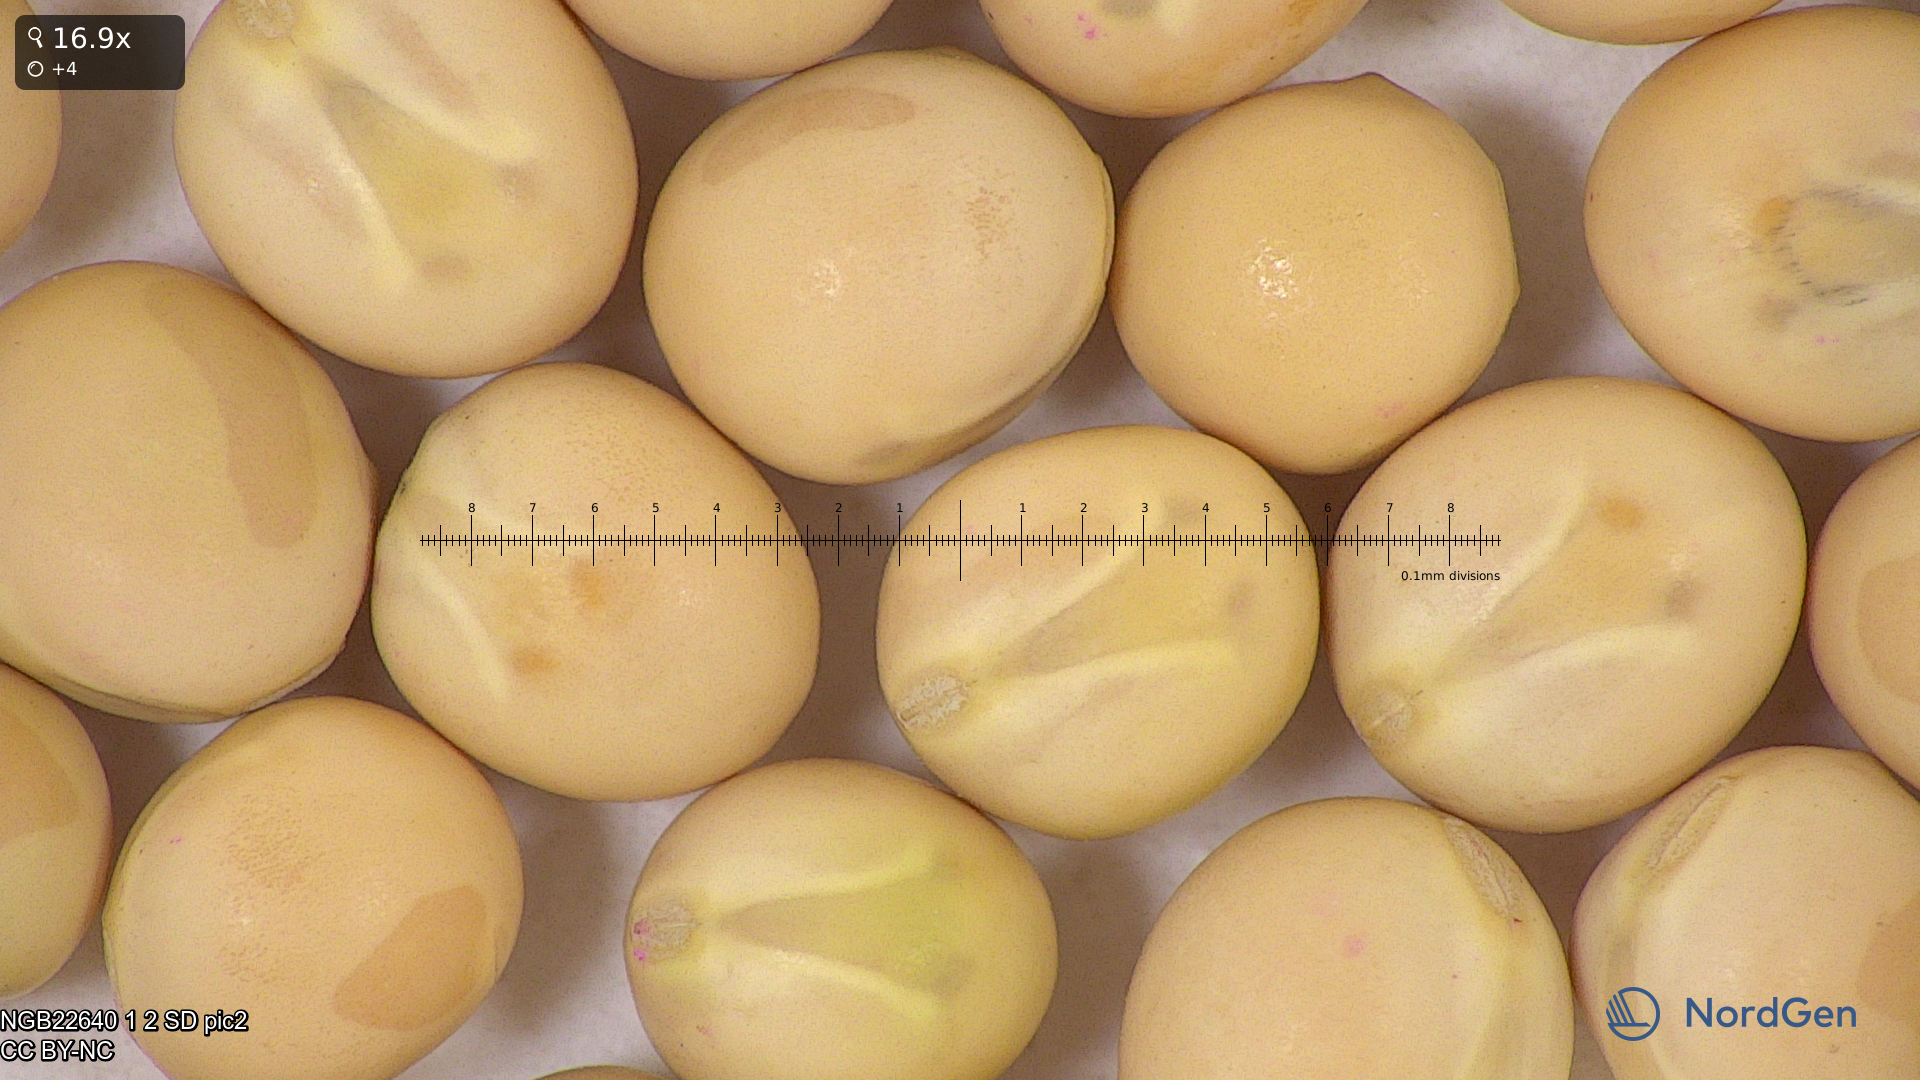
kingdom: Plantae
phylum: Tracheophyta
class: Magnoliopsida
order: Fabales
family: Fabaceae
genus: Lathyrus
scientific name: Lathyrus oleraceus
